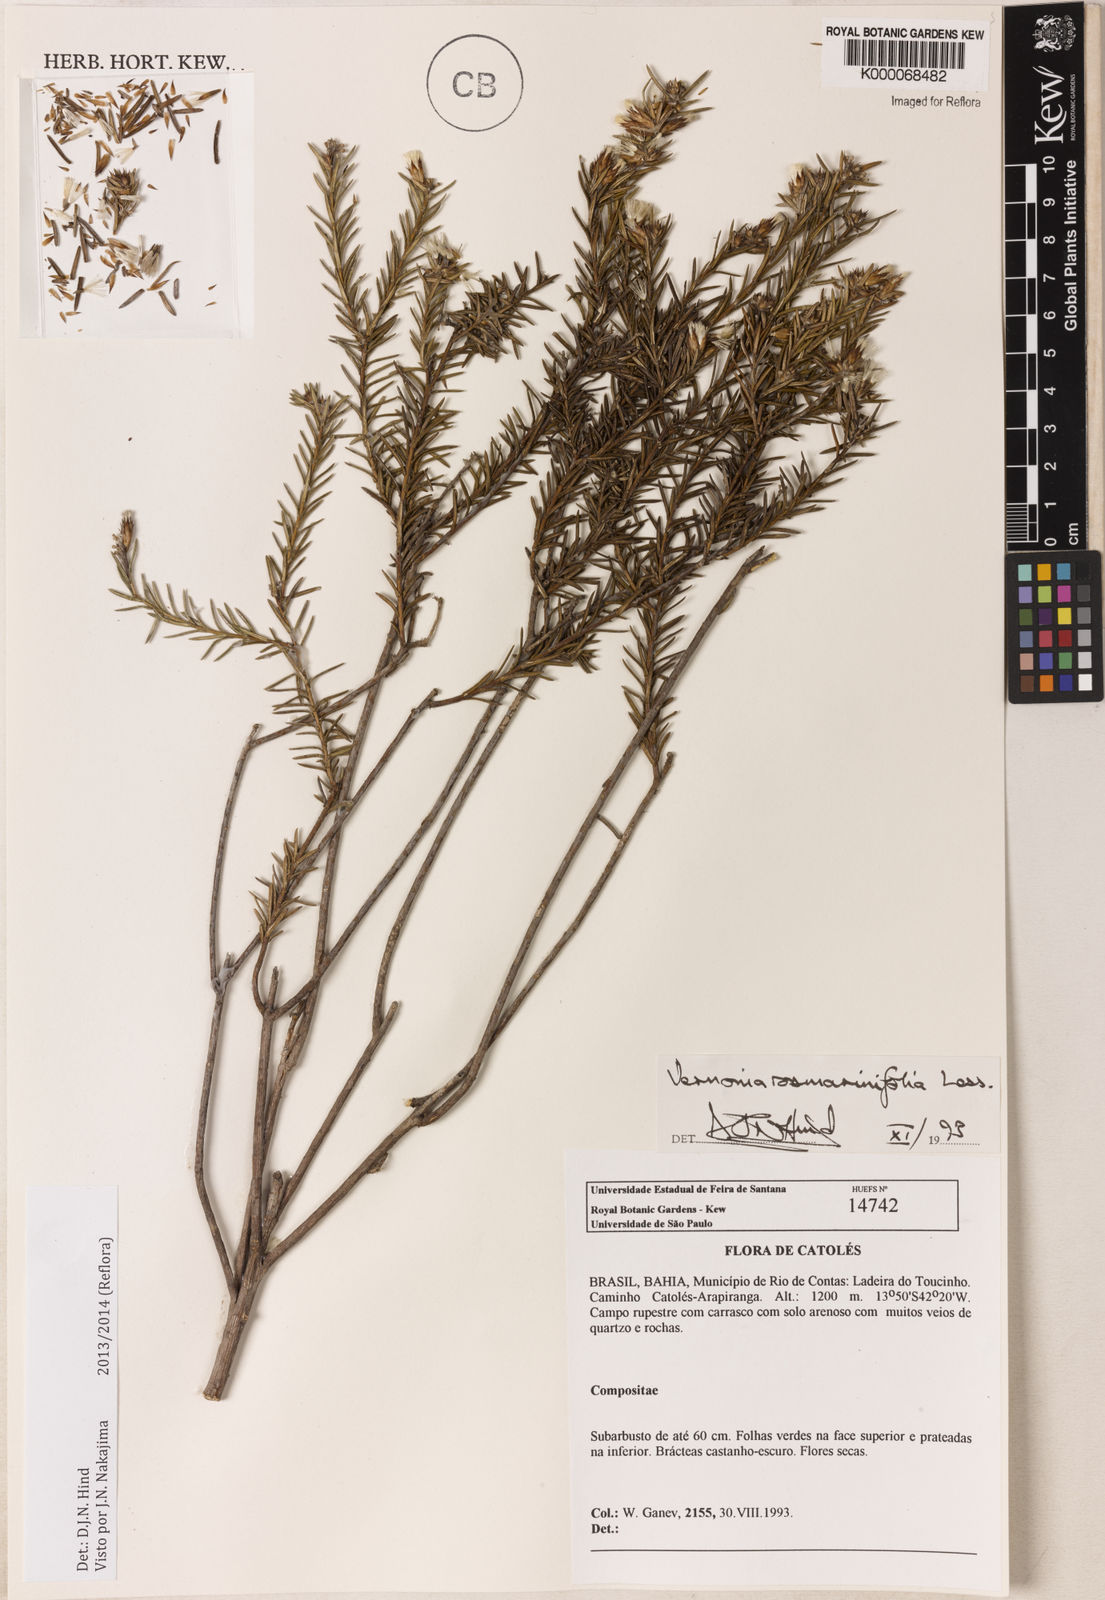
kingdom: Plantae
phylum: Tracheophyta
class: Magnoliopsida
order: Asterales
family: Asteraceae
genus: Lessingianthus
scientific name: Lessingianthus rosmarinifolius
